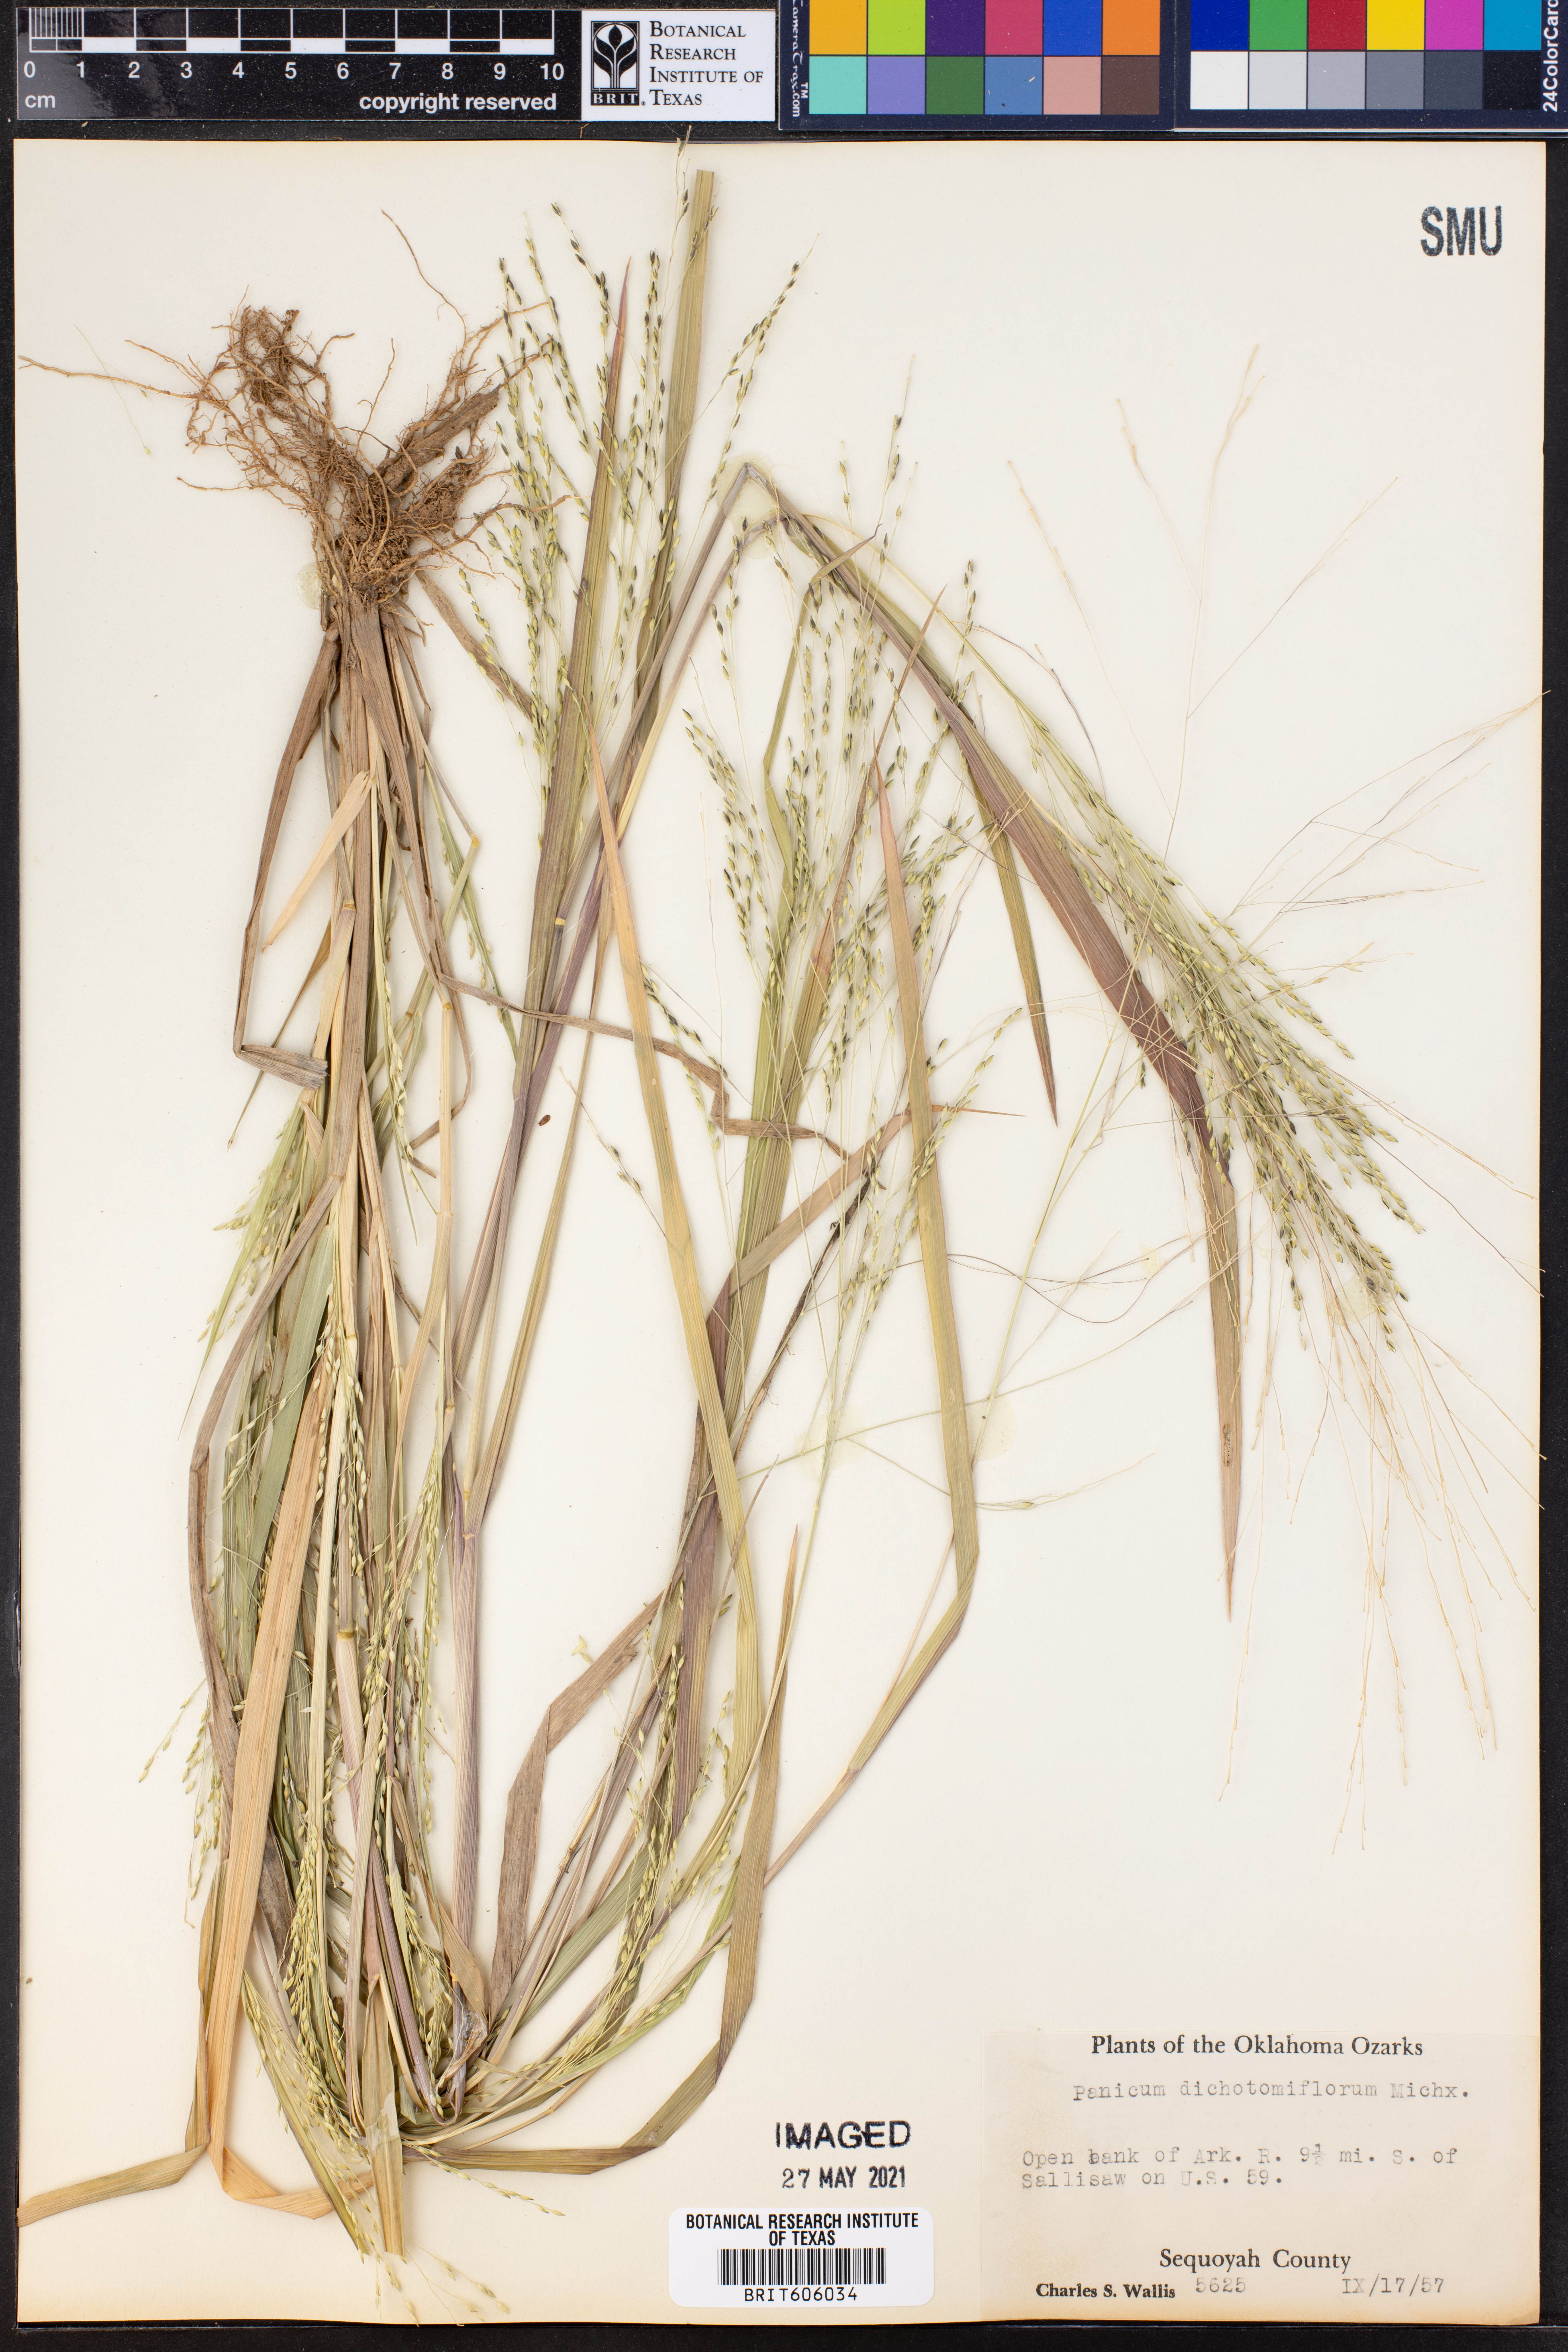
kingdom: Plantae
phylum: Tracheophyta
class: Liliopsida
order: Poales
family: Poaceae
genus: Panicum
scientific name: Panicum dichotomiflorum
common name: Autumn millet
